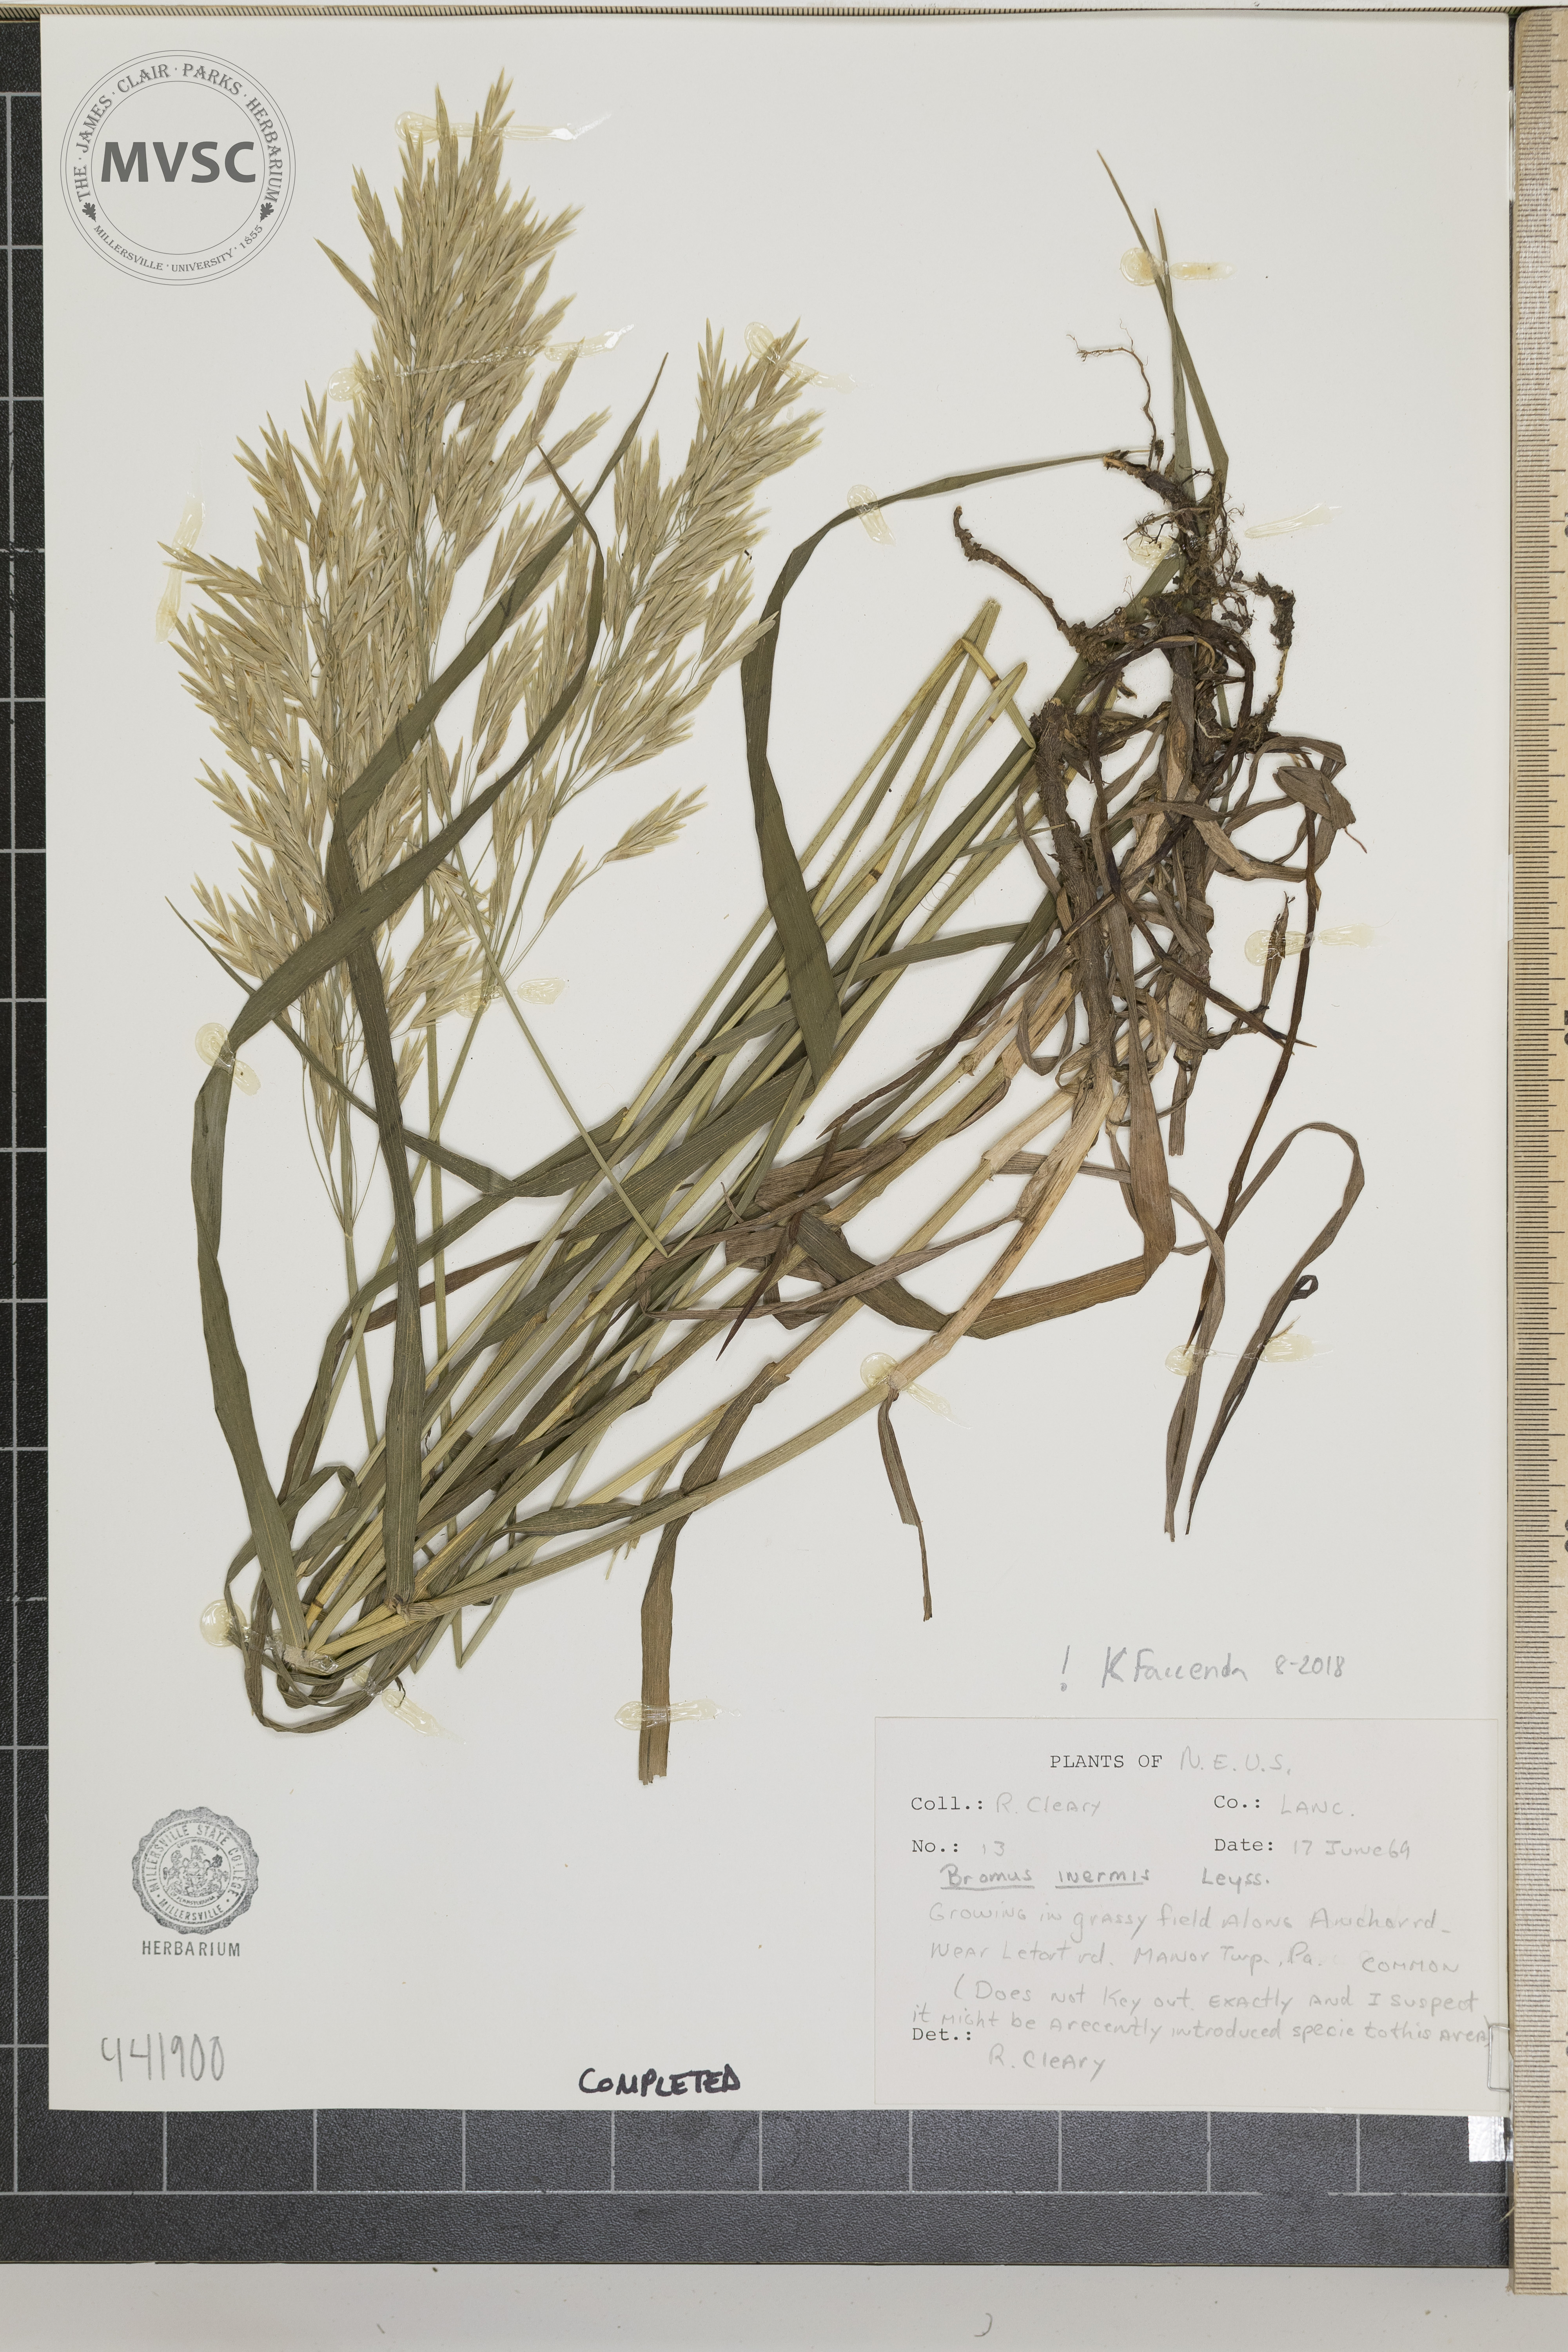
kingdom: Plantae
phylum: Tracheophyta
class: Liliopsida
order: Poales
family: Poaceae
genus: Bromus
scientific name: Bromus inermis
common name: Smooth brome
